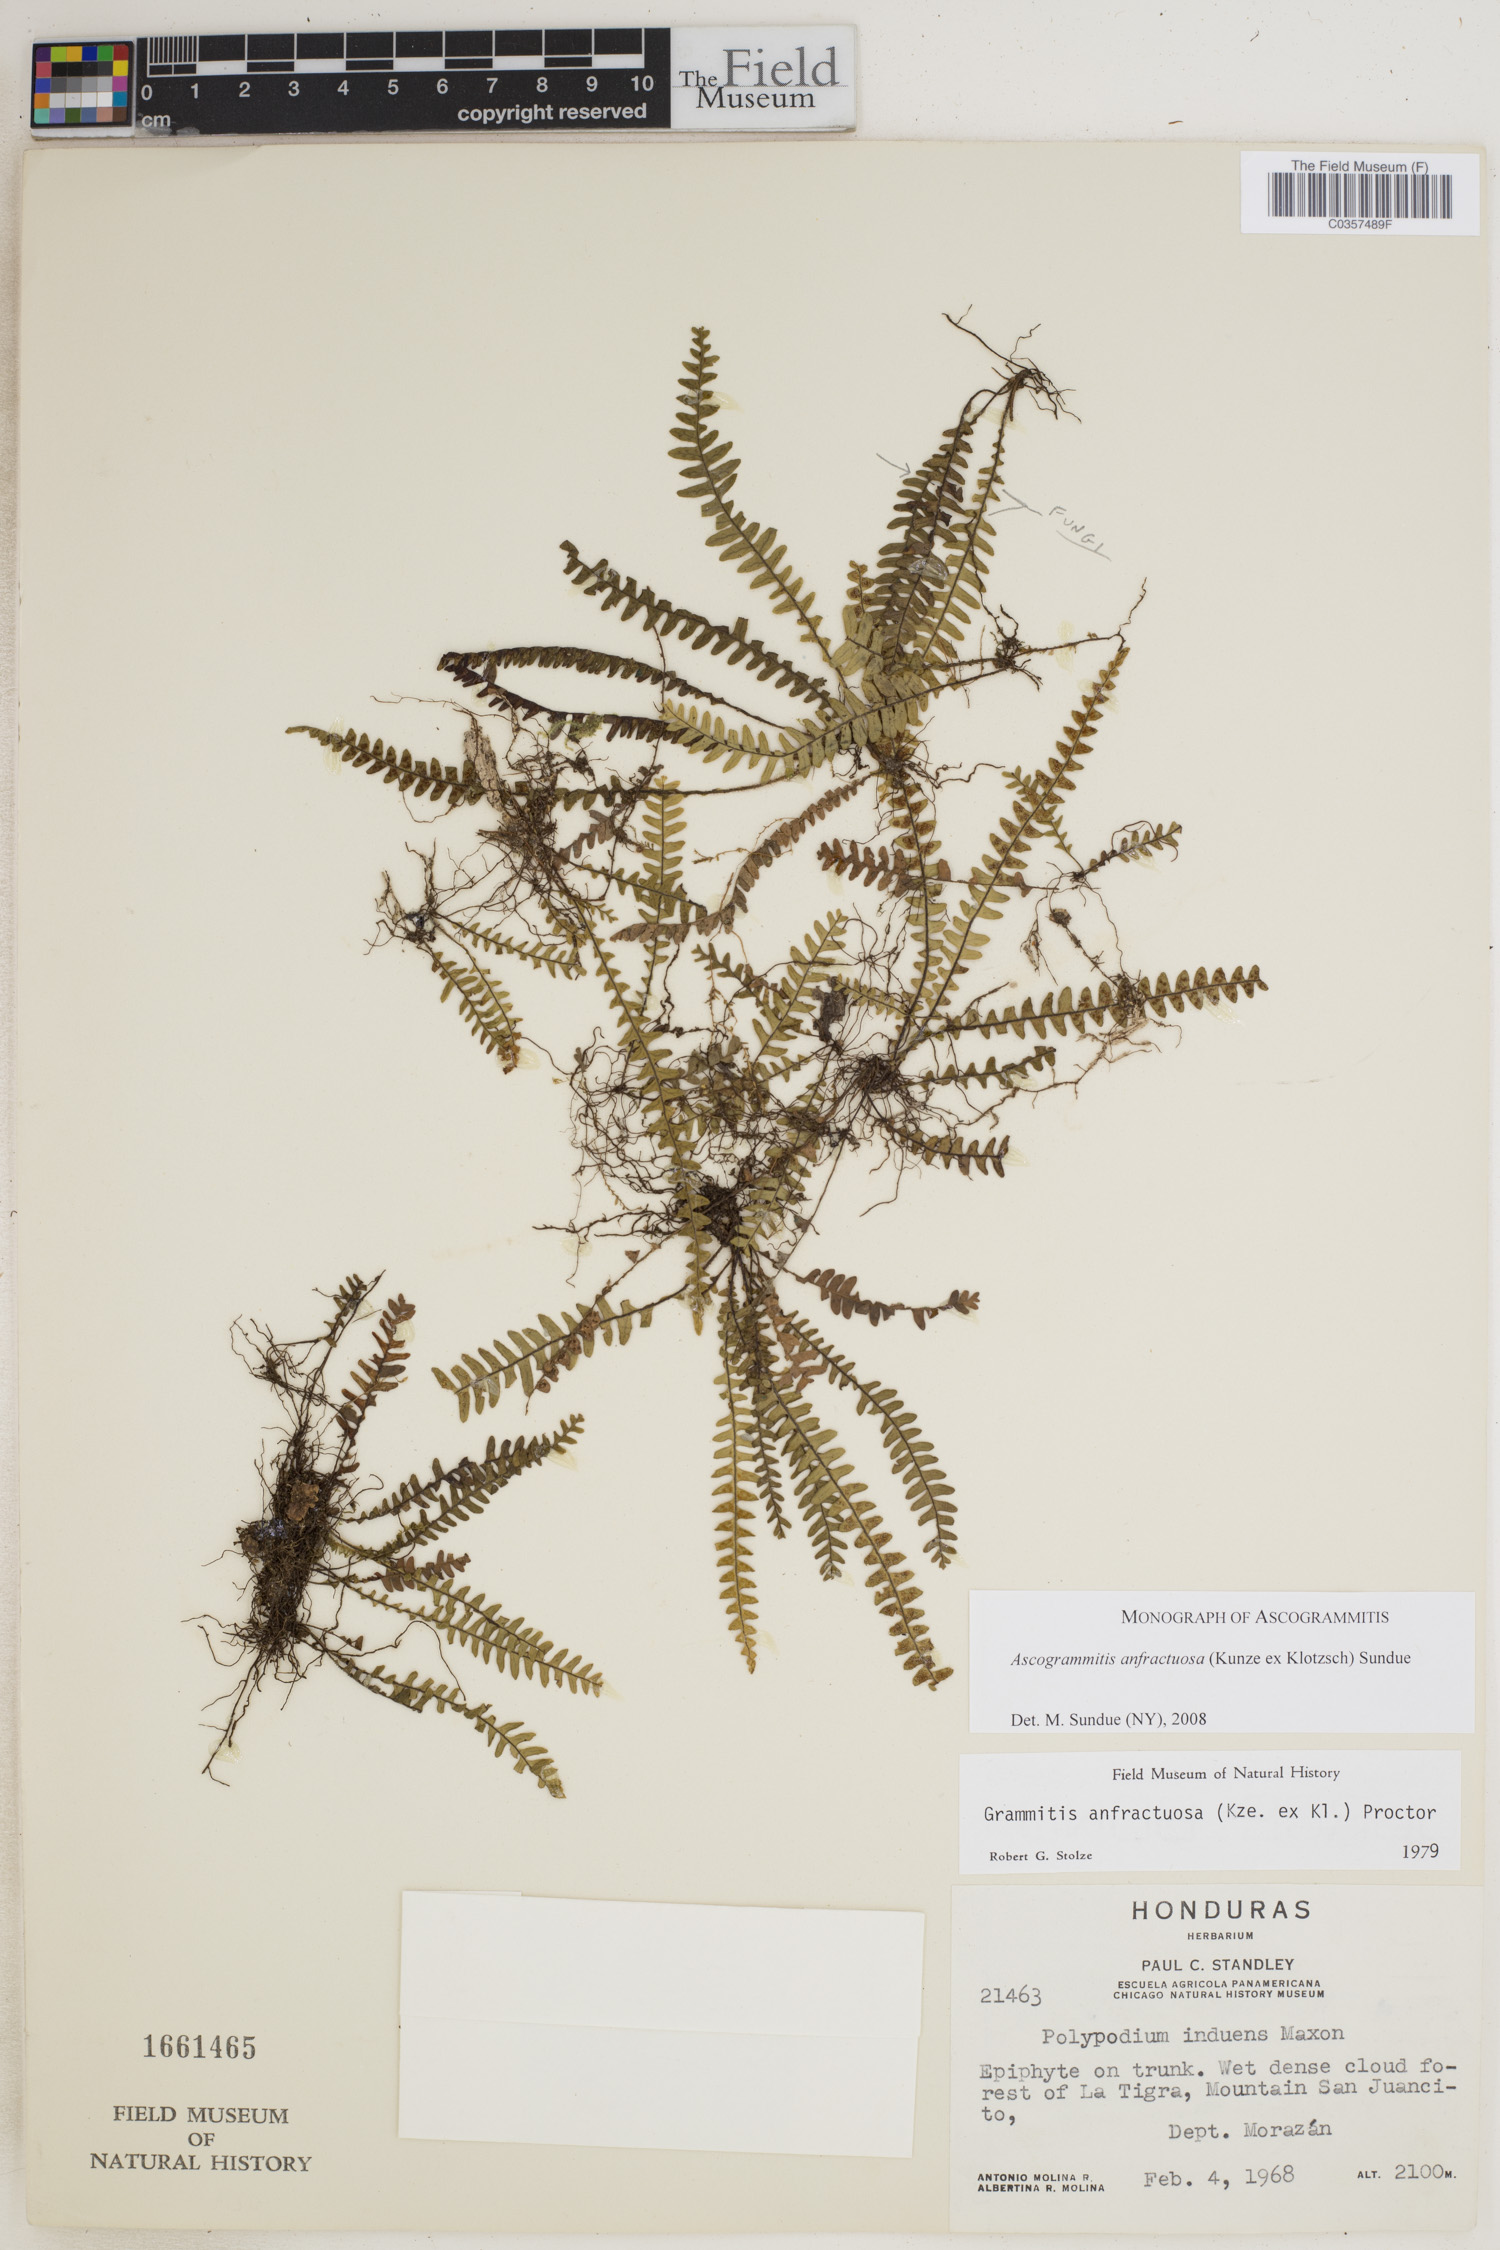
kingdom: Plantae
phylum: Tracheophyta
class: Polypodiopsida
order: Polypodiales
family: Polypodiaceae
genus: Ascogrammitis
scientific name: Ascogrammitis anfractuosa
